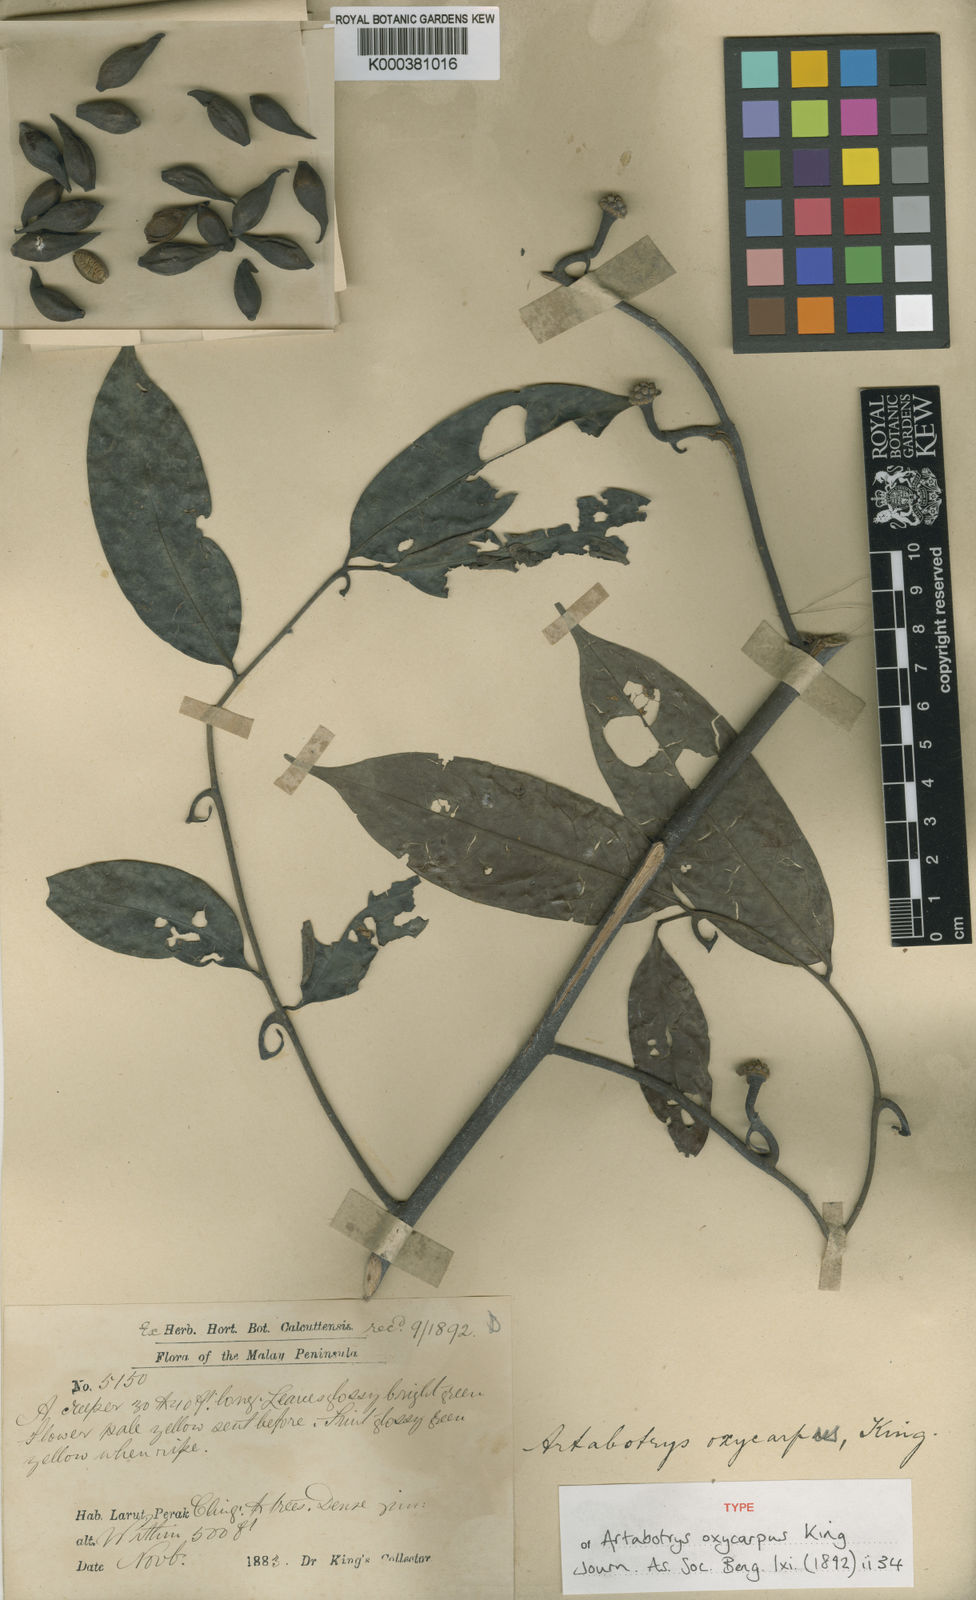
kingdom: Plantae
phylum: Tracheophyta
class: Magnoliopsida
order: Magnoliales
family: Annonaceae
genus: Artabotrys
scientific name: Artabotrys oxycarpus
